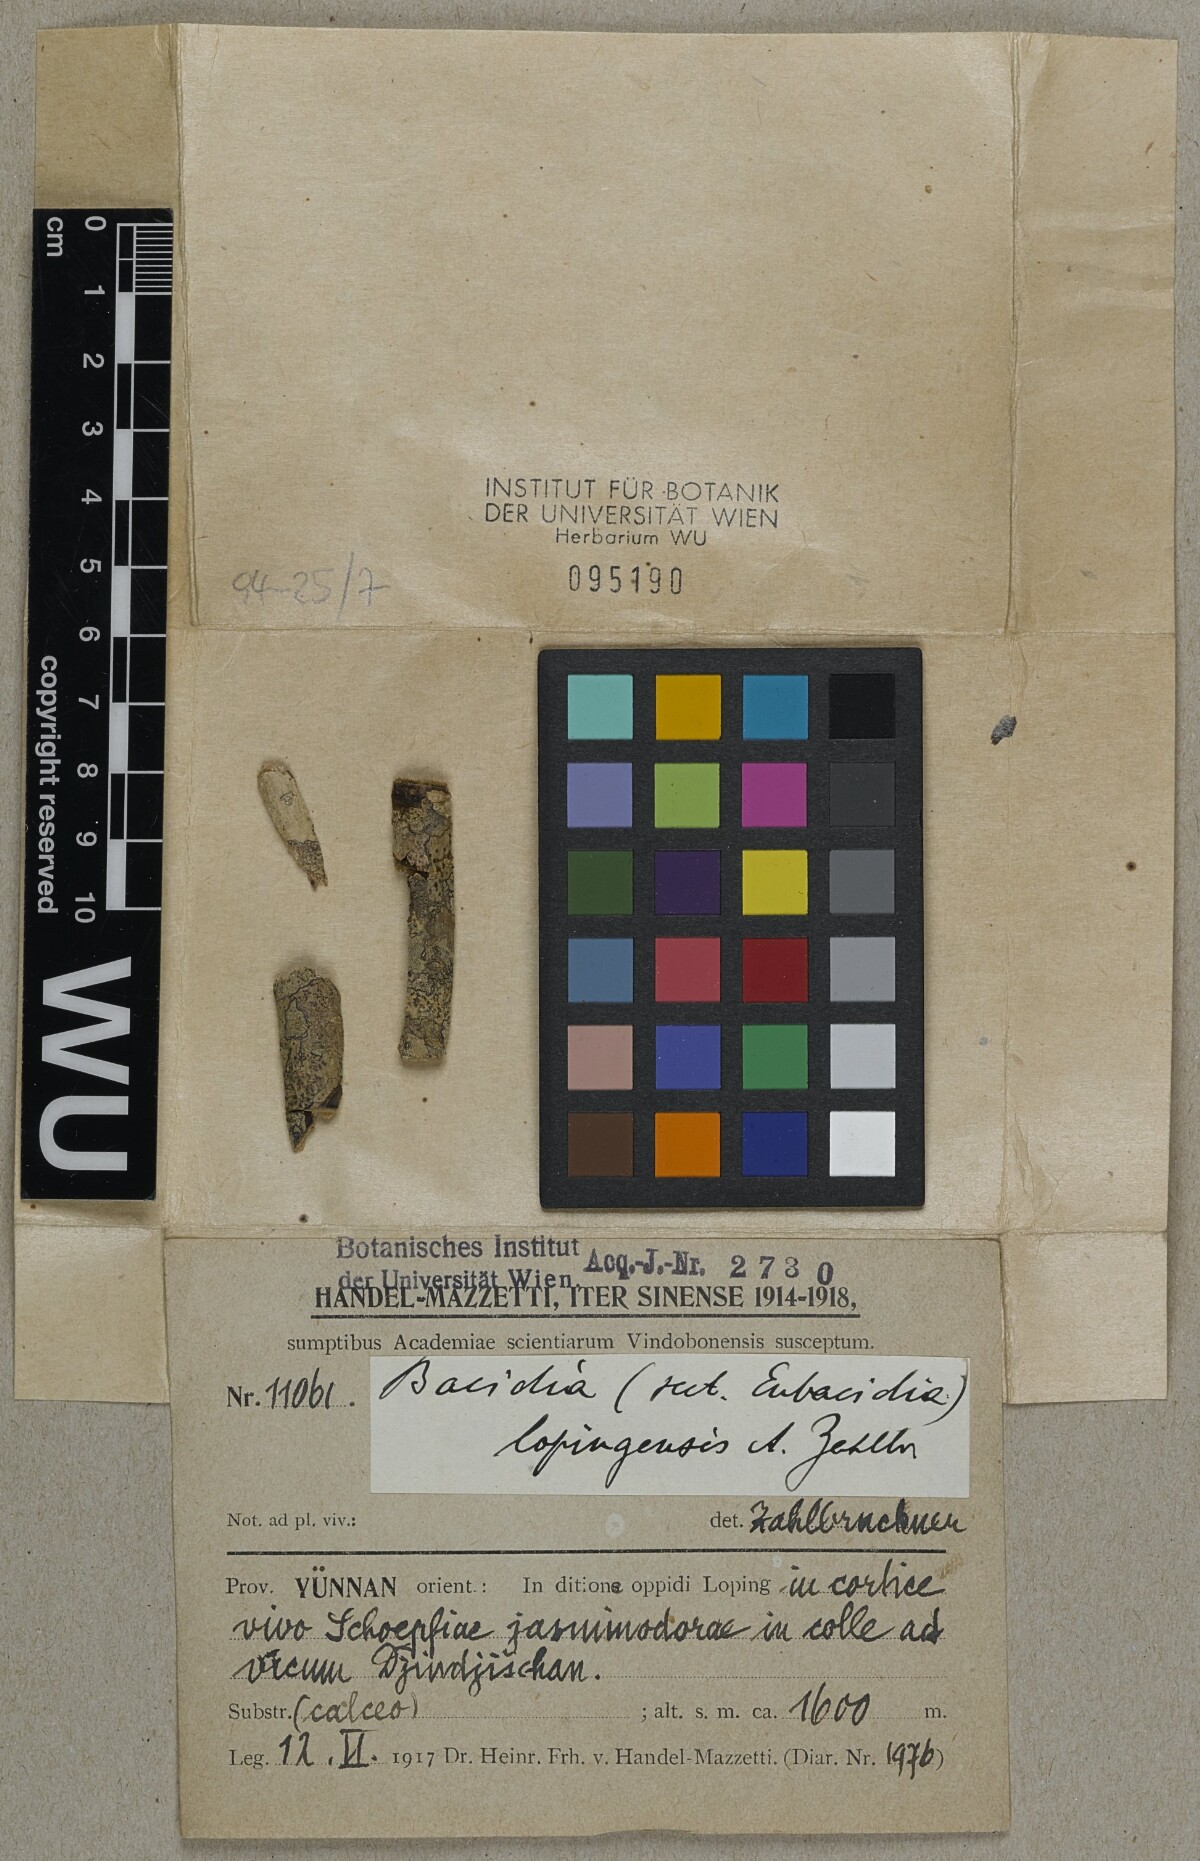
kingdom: Fungi
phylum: Ascomycota
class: Lecanoromycetes
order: Lecanorales
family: Ramalinaceae
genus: Bacidia
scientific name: Bacidia
